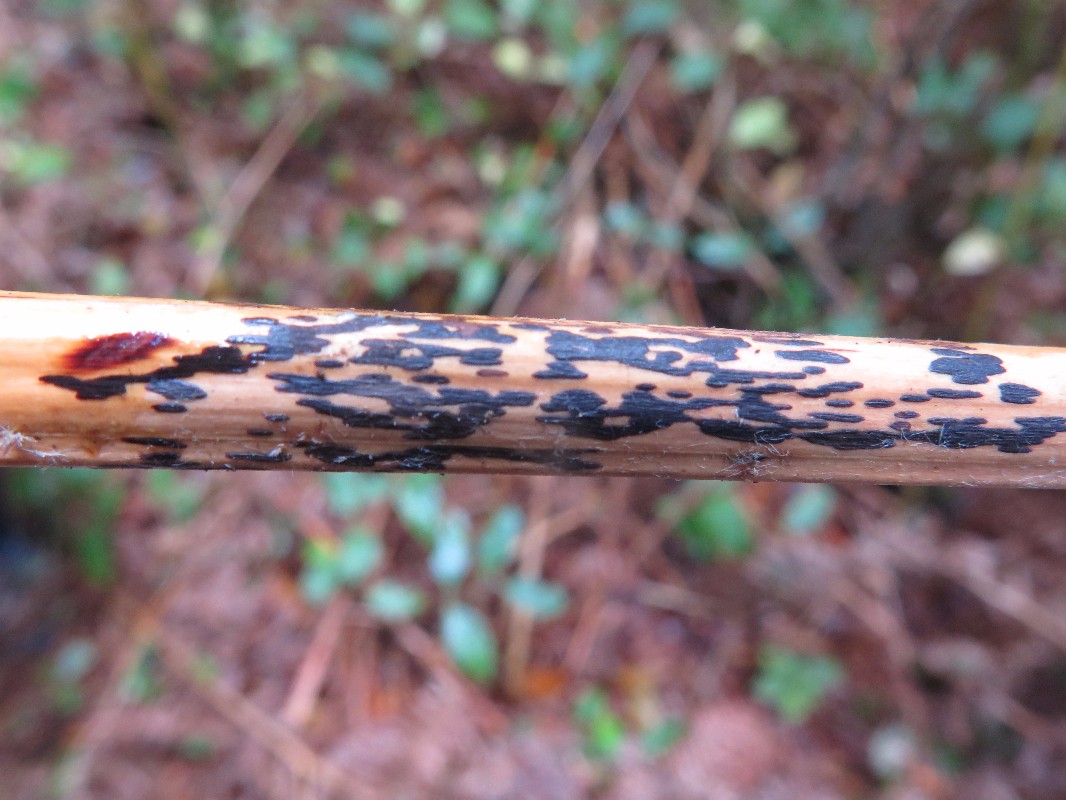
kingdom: Fungi
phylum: Ascomycota
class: Dothideomycetes
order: Pleosporales
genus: Rhopographus
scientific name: Rhopographus filicinus
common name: Bracken map
